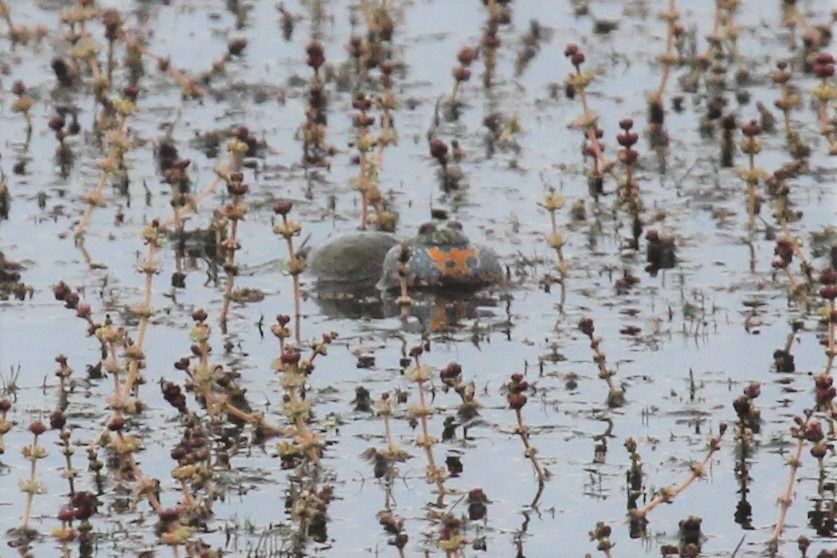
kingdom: Animalia
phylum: Chordata
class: Amphibia
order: Anura
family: Bombinatoridae
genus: Bombina
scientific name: Bombina bombina
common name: Klokkefrø
